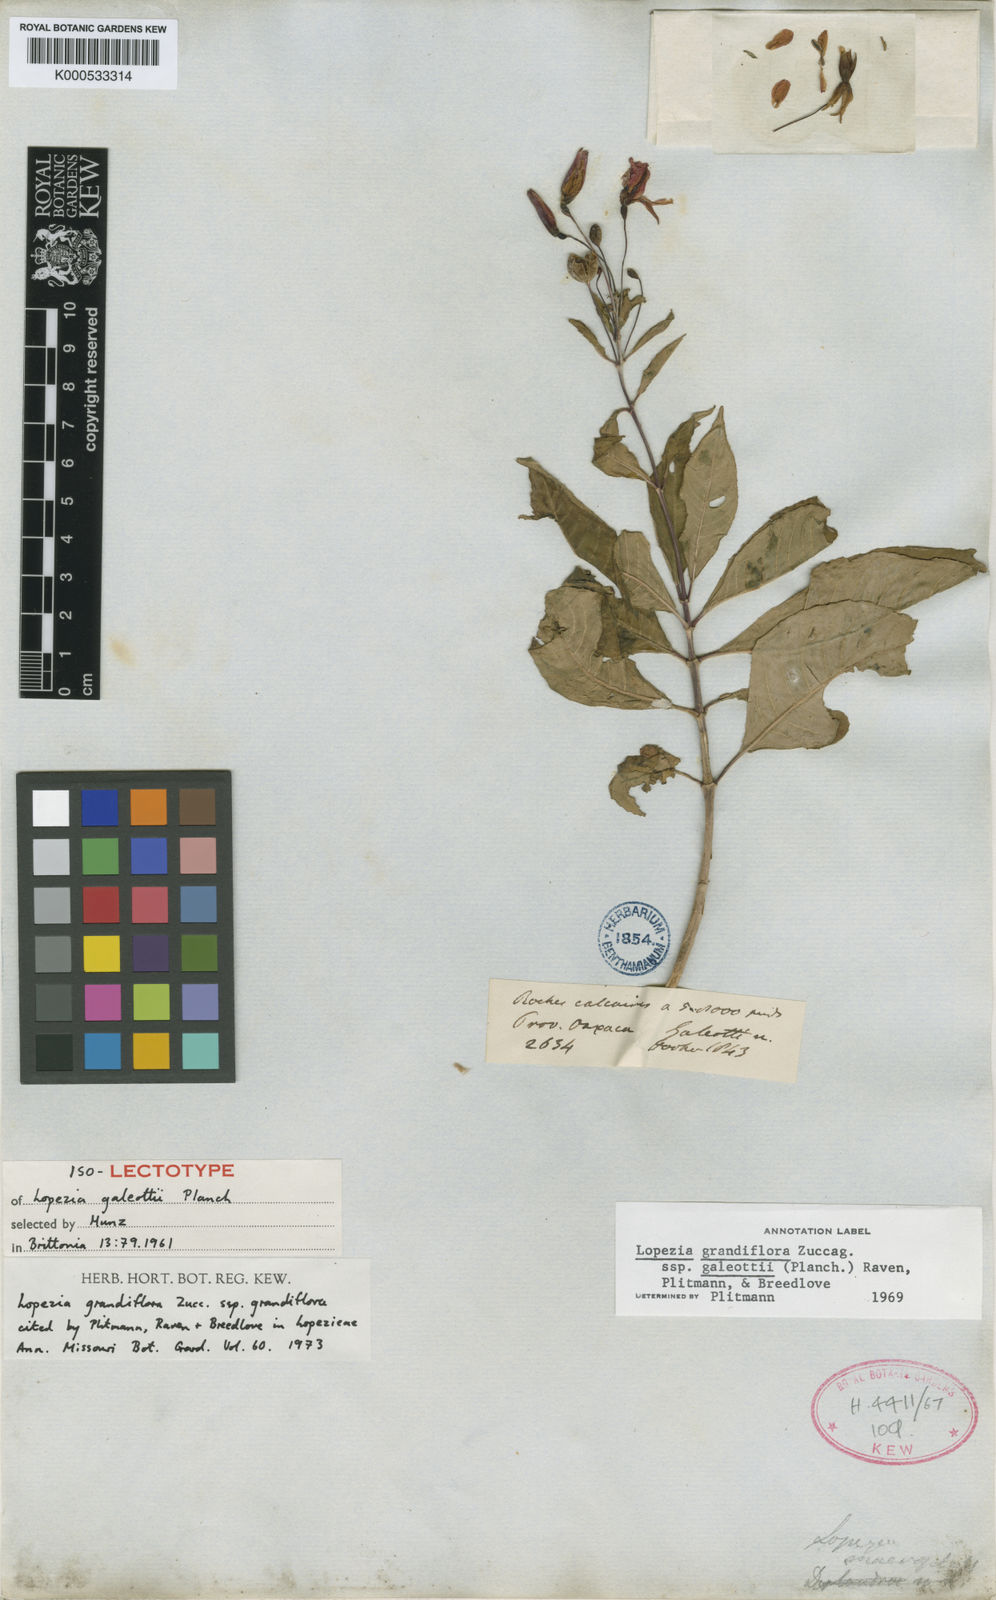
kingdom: Plantae
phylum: Tracheophyta
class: Magnoliopsida
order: Myrtales
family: Onagraceae
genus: Lopezia
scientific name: Lopezia grandiflora
